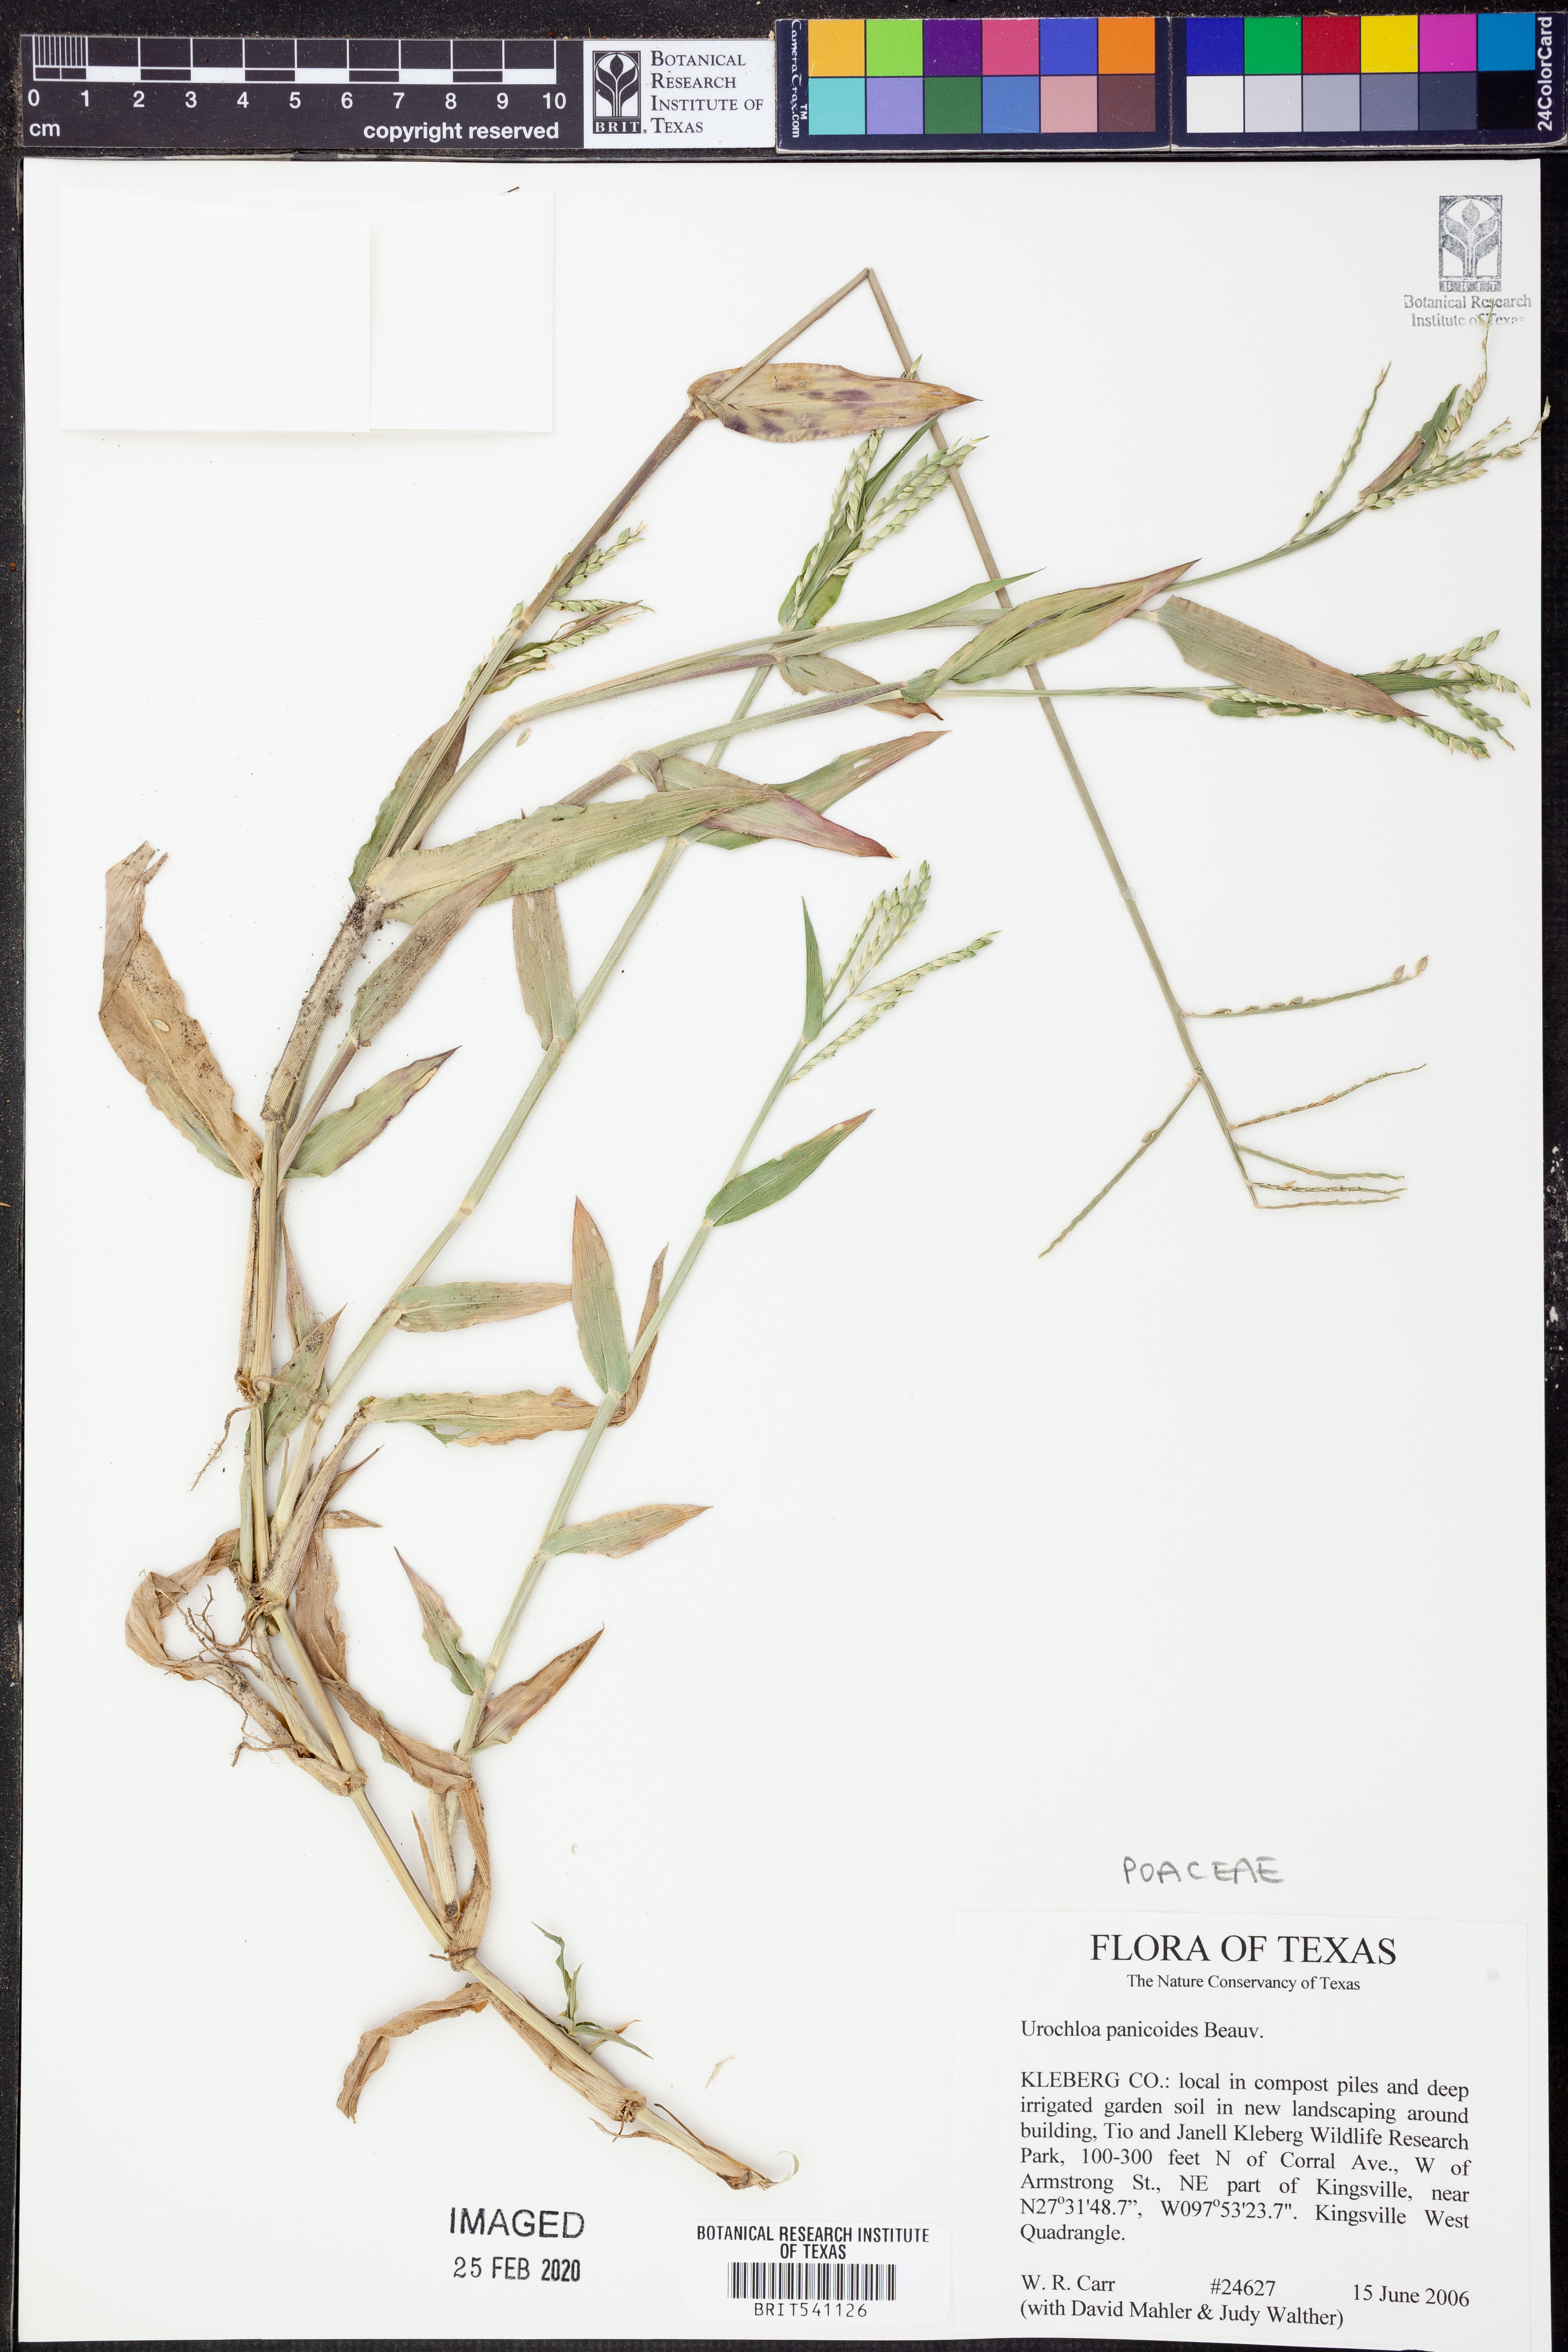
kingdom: Plantae
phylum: Tracheophyta
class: Liliopsida
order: Poales
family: Poaceae
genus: Urochloa
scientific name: Urochloa panicoides
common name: Sharp-flowered signal-grass
